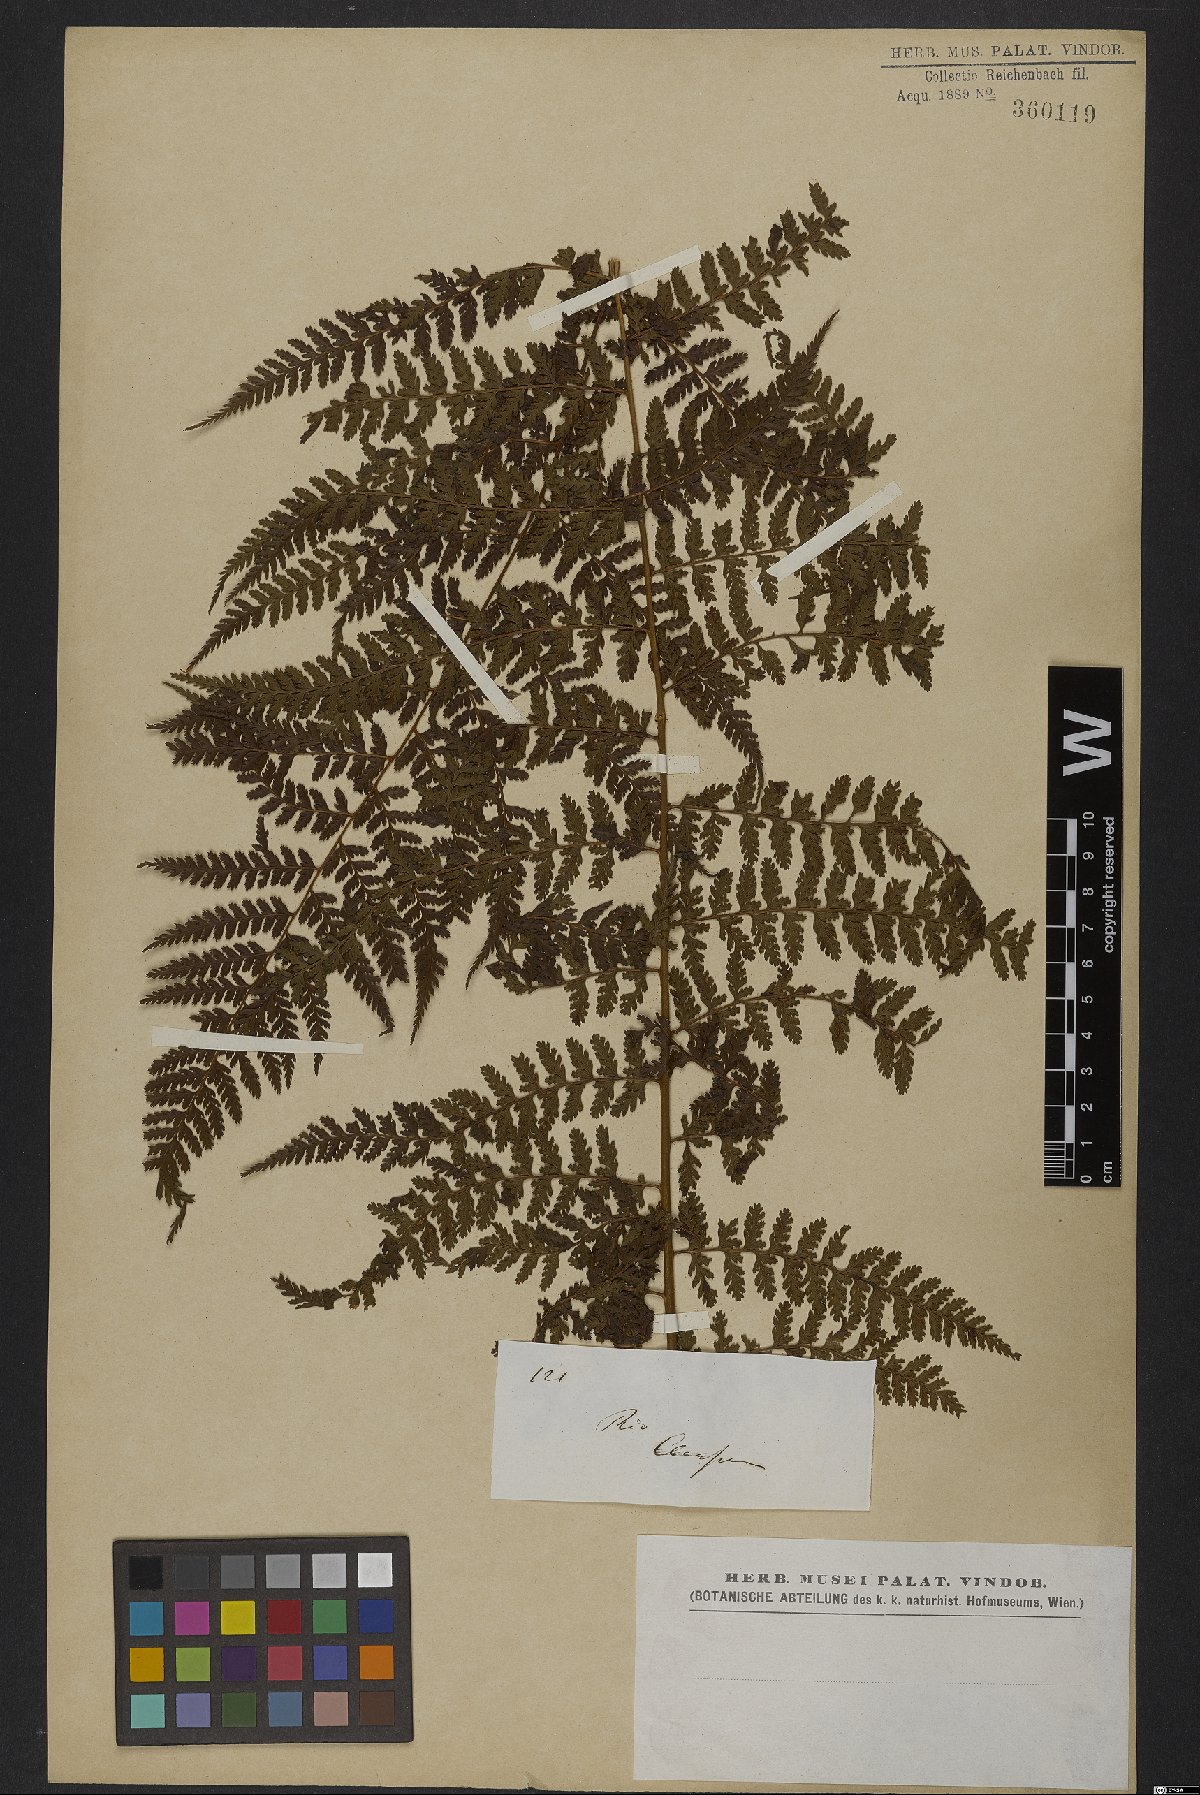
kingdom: Plantae
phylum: Tracheophyta
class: Polypodiopsida
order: Polypodiales
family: Dryopteridaceae
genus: Parapolystichum
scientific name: Parapolystichum effusum
